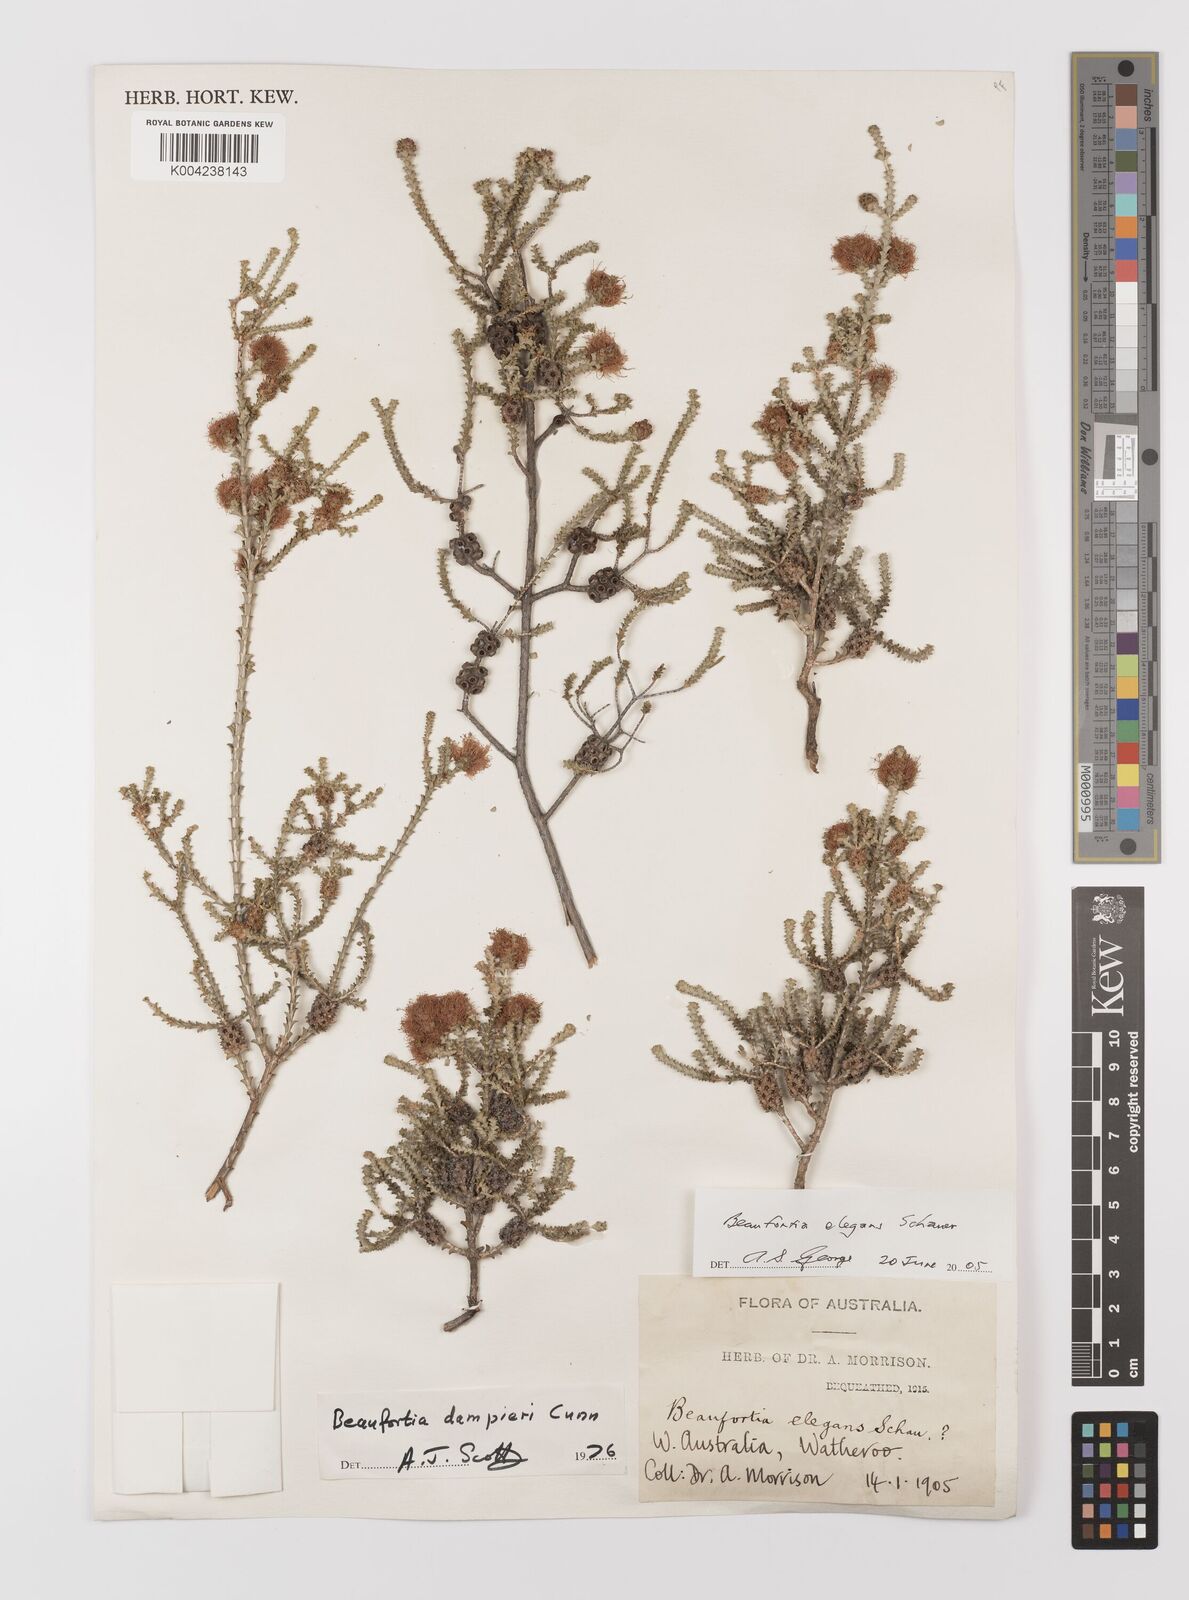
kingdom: Plantae
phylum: Tracheophyta
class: Magnoliopsida
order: Myrtales
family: Myrtaceae
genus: Melaleuca
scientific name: Melaleuca scitula
